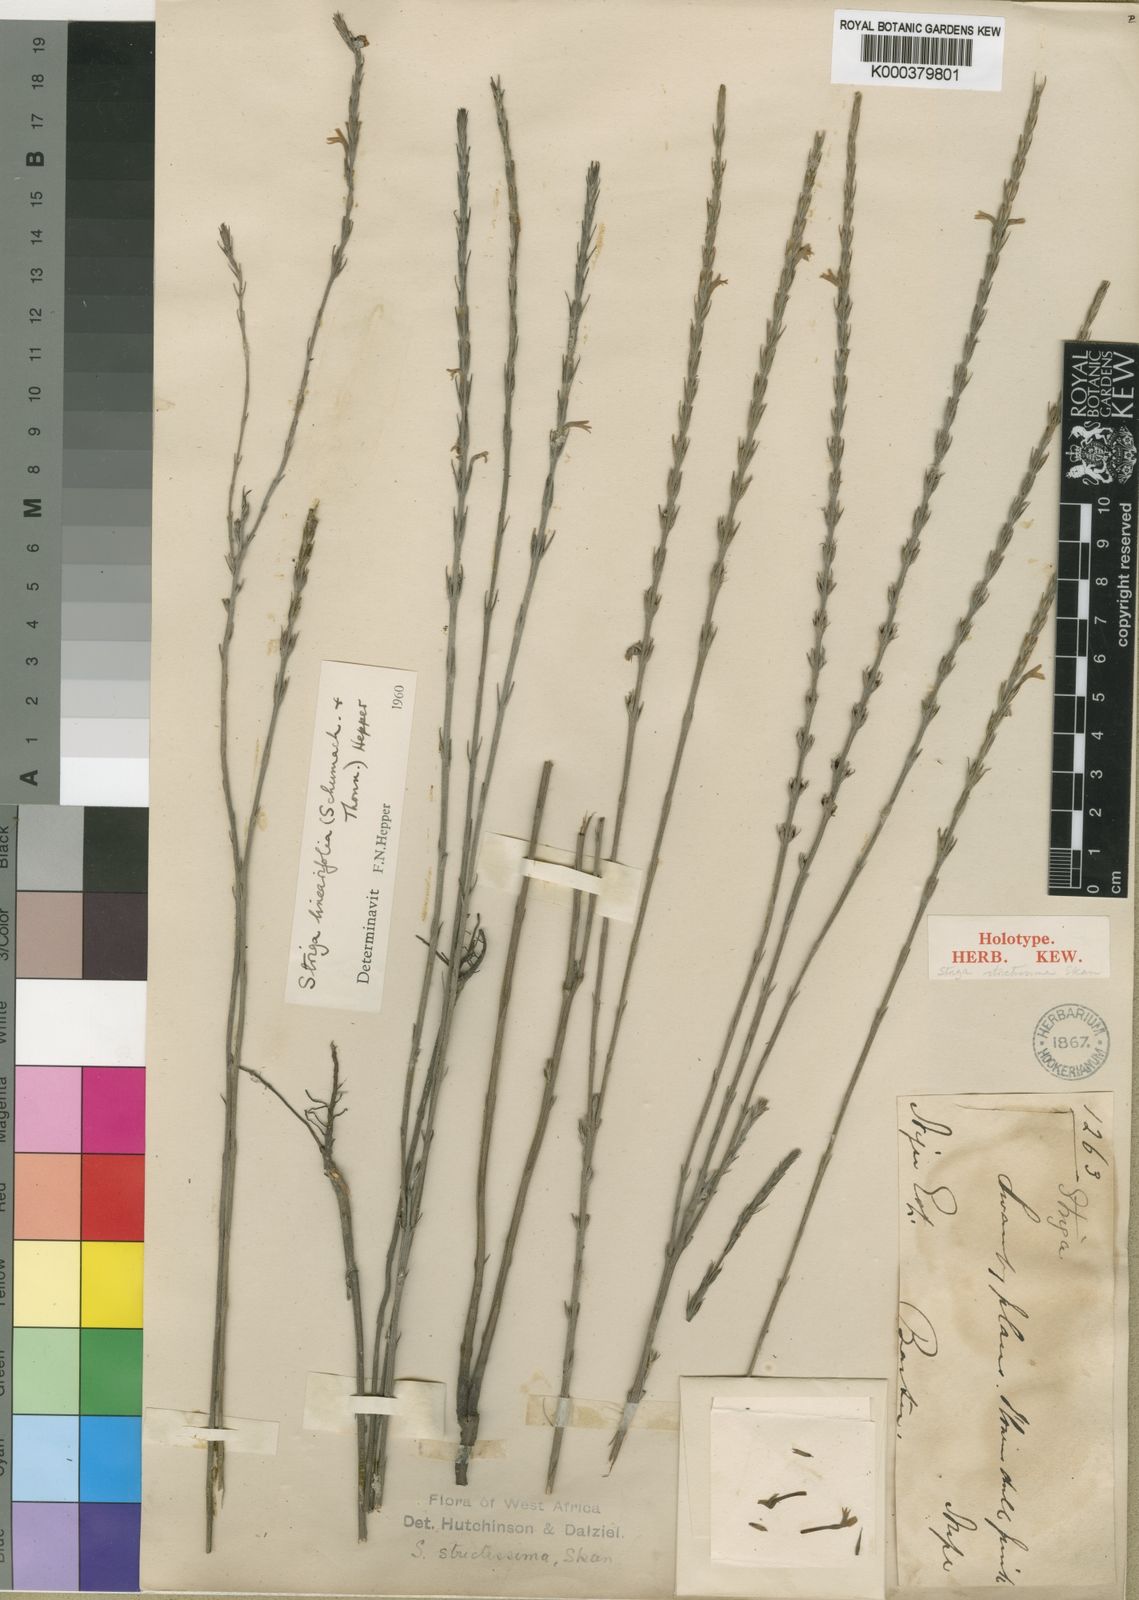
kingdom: Plantae
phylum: Tracheophyta
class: Magnoliopsida
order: Lamiales
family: Orobanchaceae
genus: Striga
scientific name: Striga linearifolia
